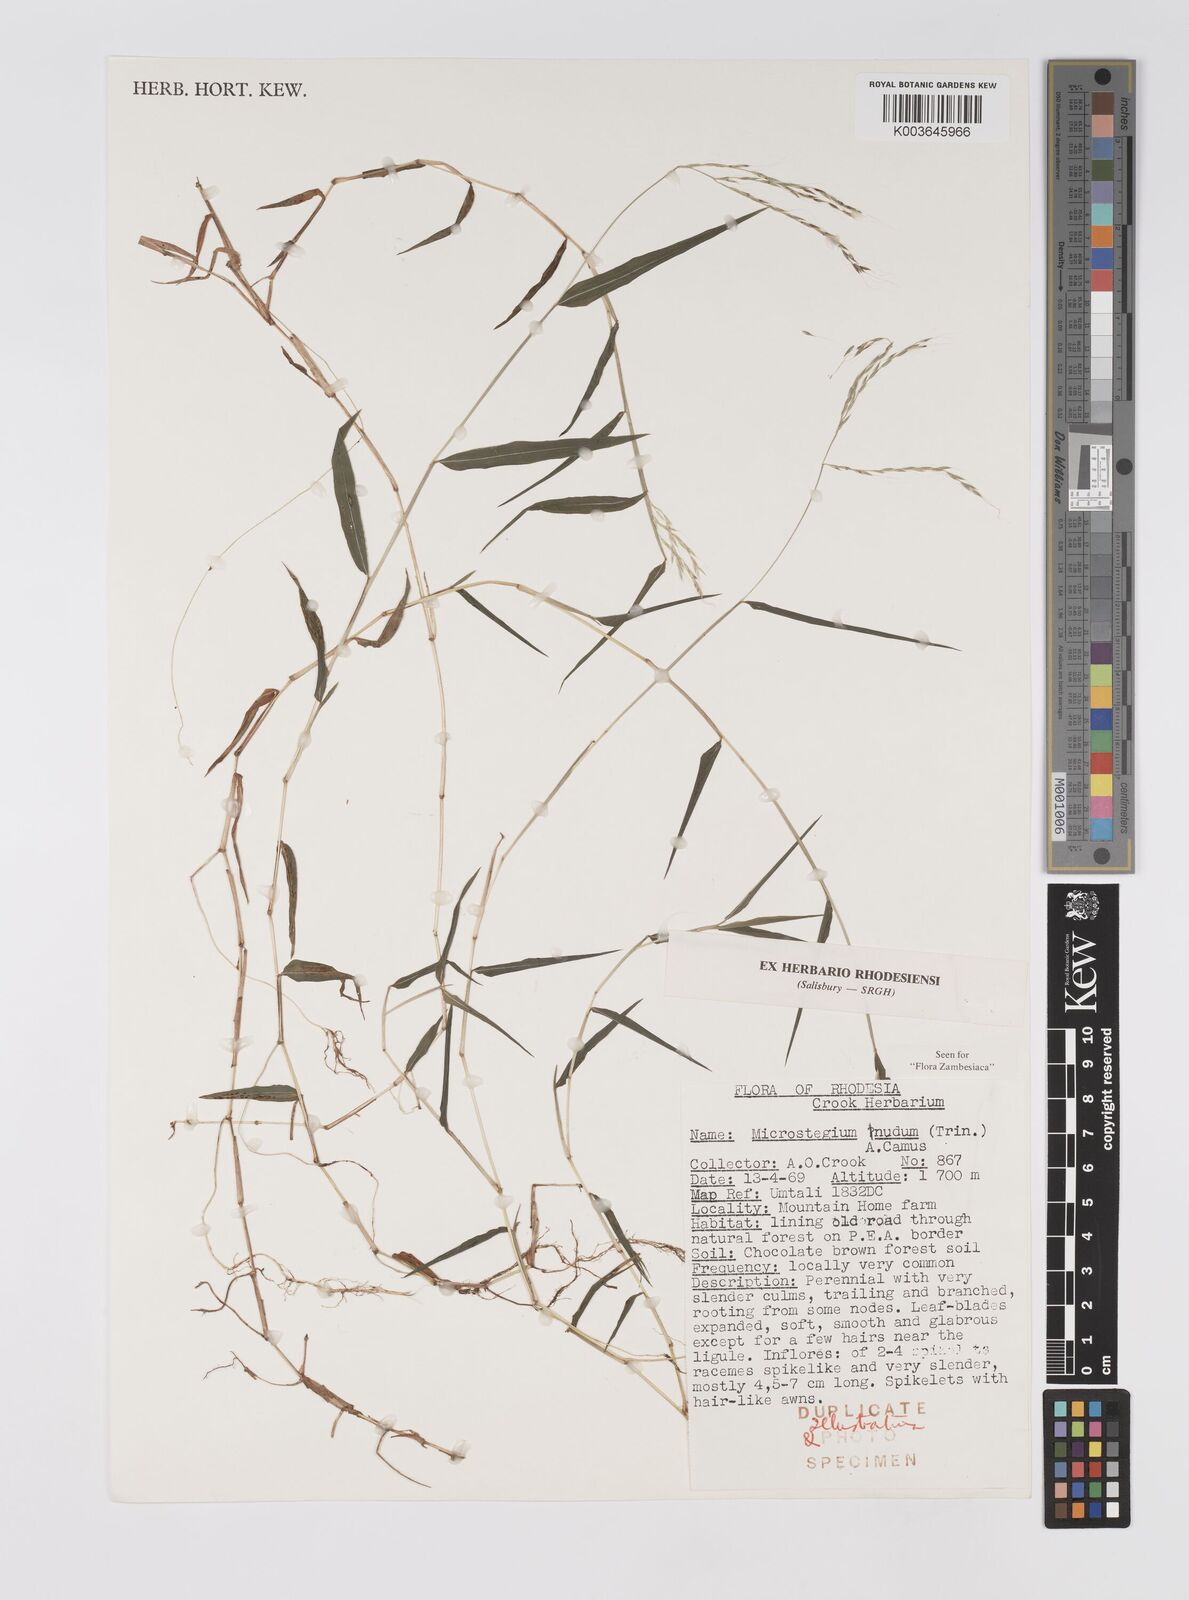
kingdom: Plantae
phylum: Tracheophyta
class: Liliopsida
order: Poales
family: Poaceae
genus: Microstegium
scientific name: Microstegium nudum
